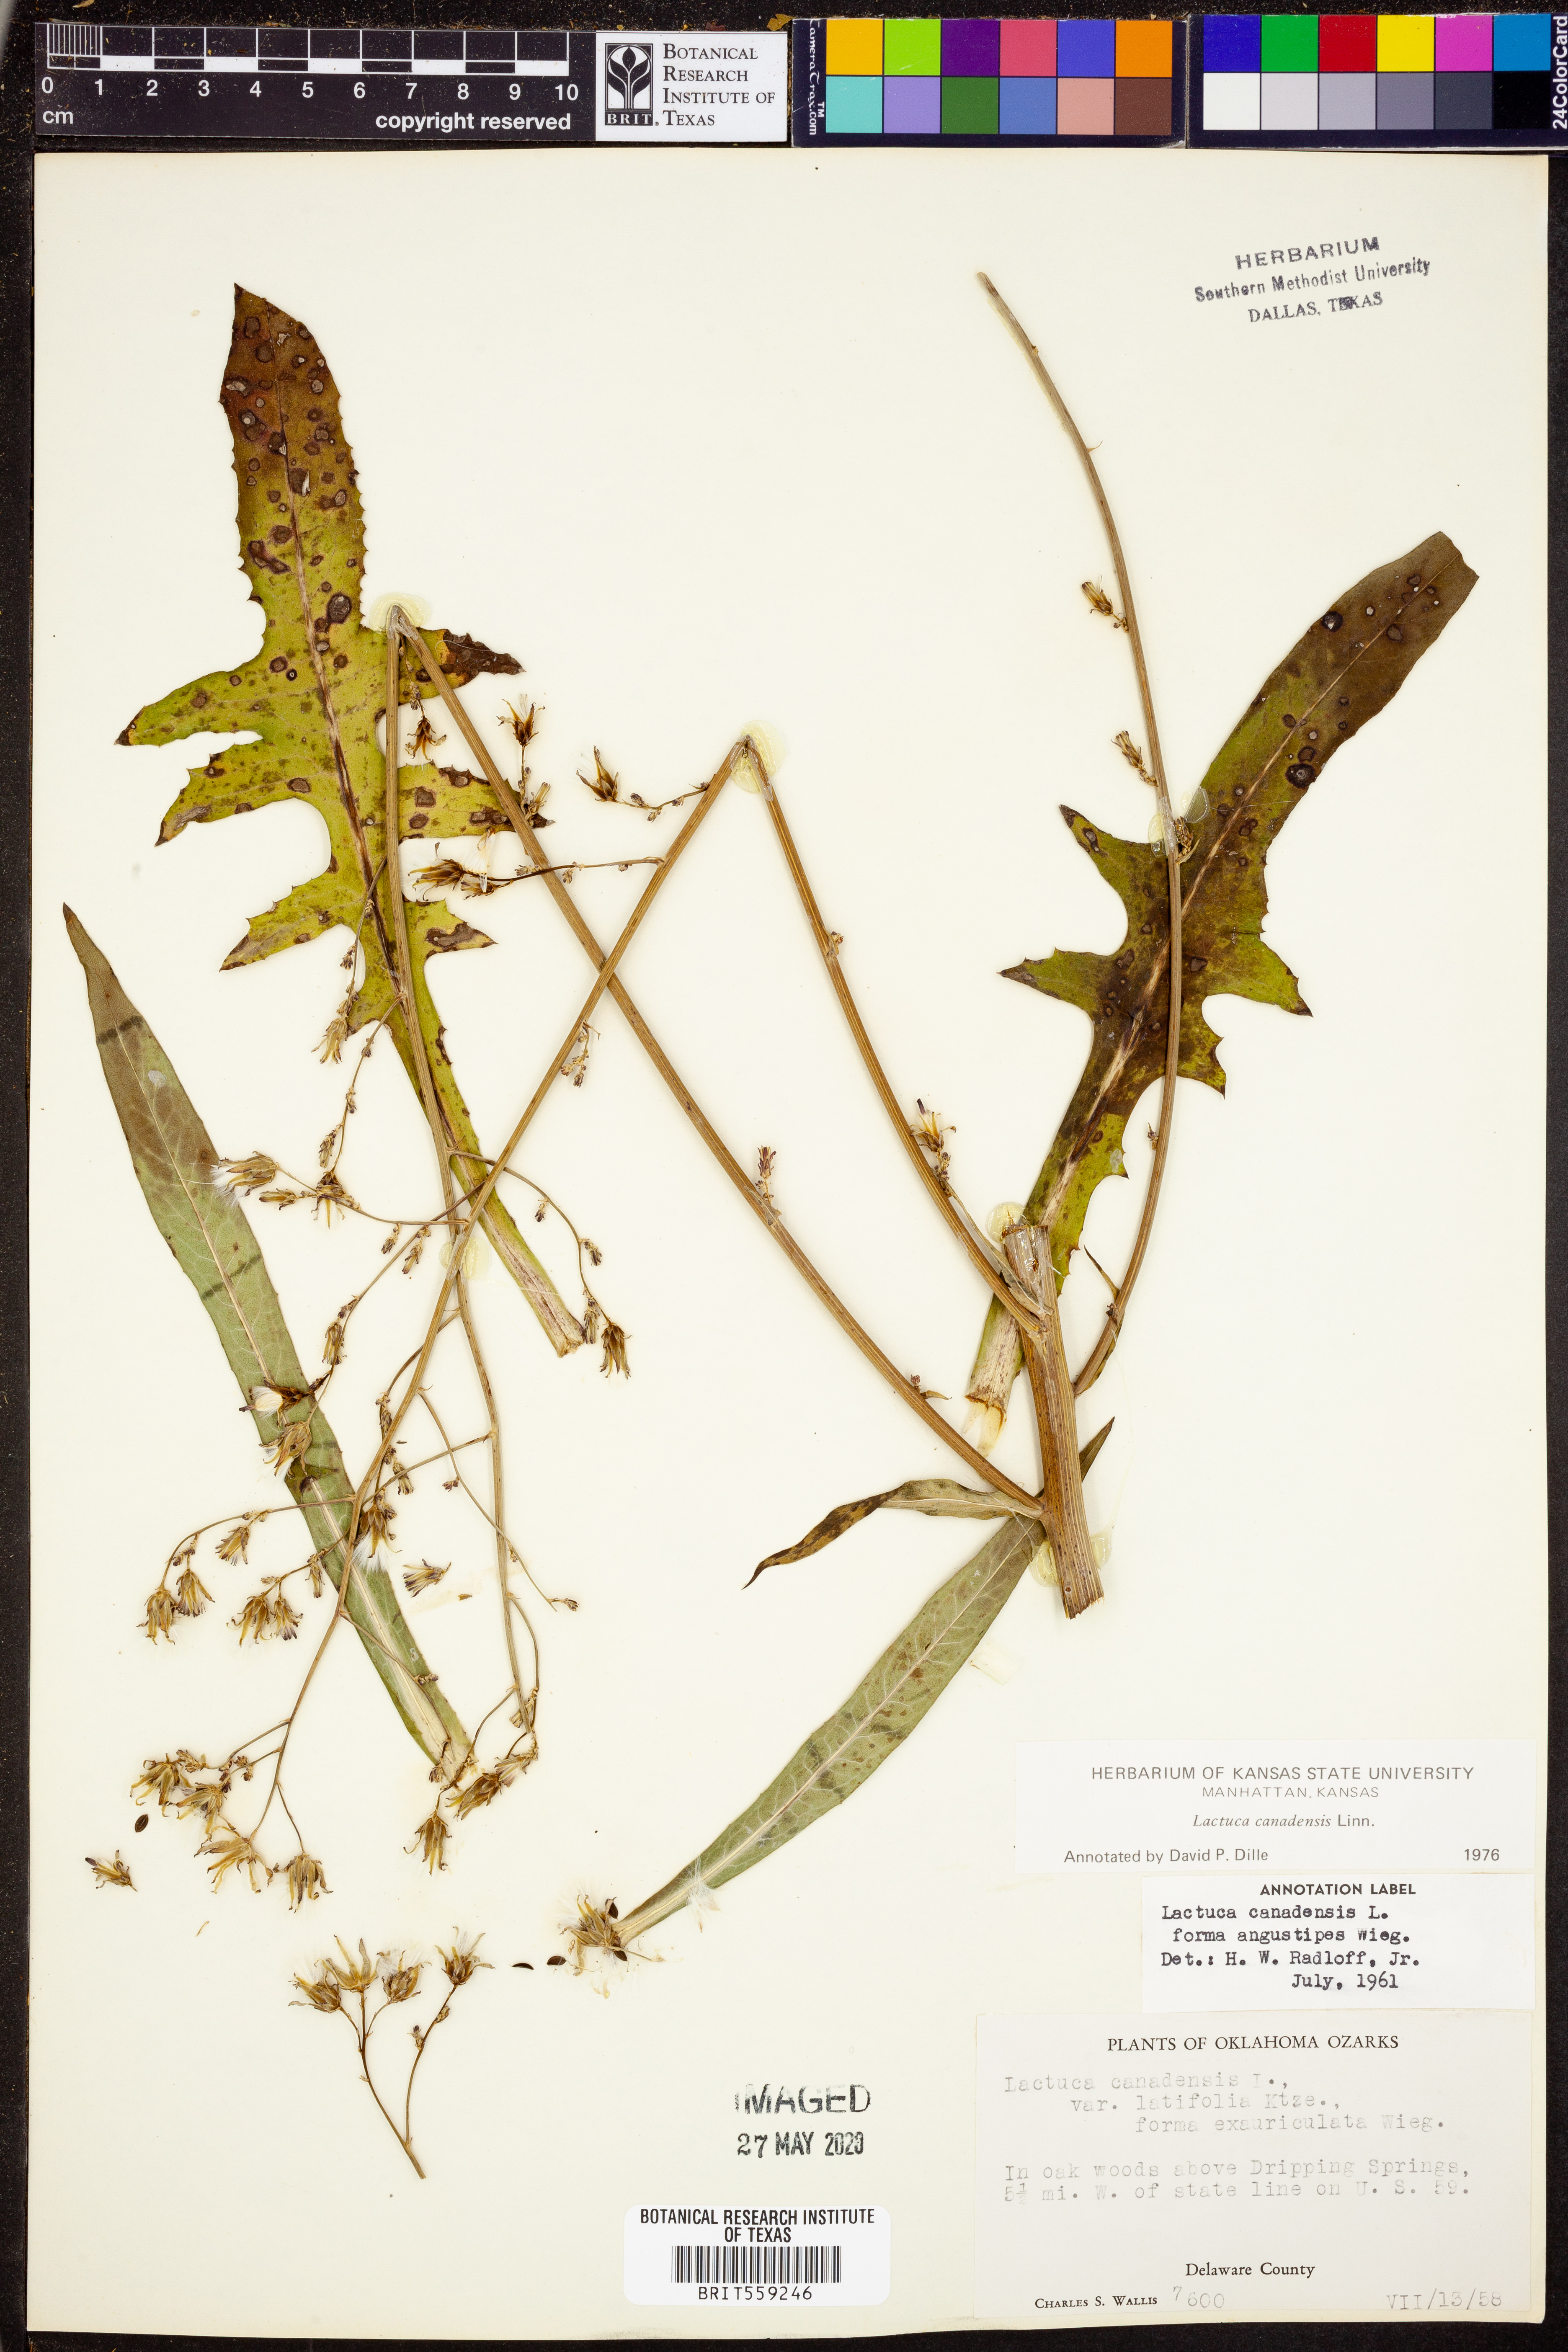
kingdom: Plantae
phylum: Tracheophyta
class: Magnoliopsida
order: Asterales
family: Asteraceae
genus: Lactuca
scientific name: Lactuca canadensis
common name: Canada lettuce
